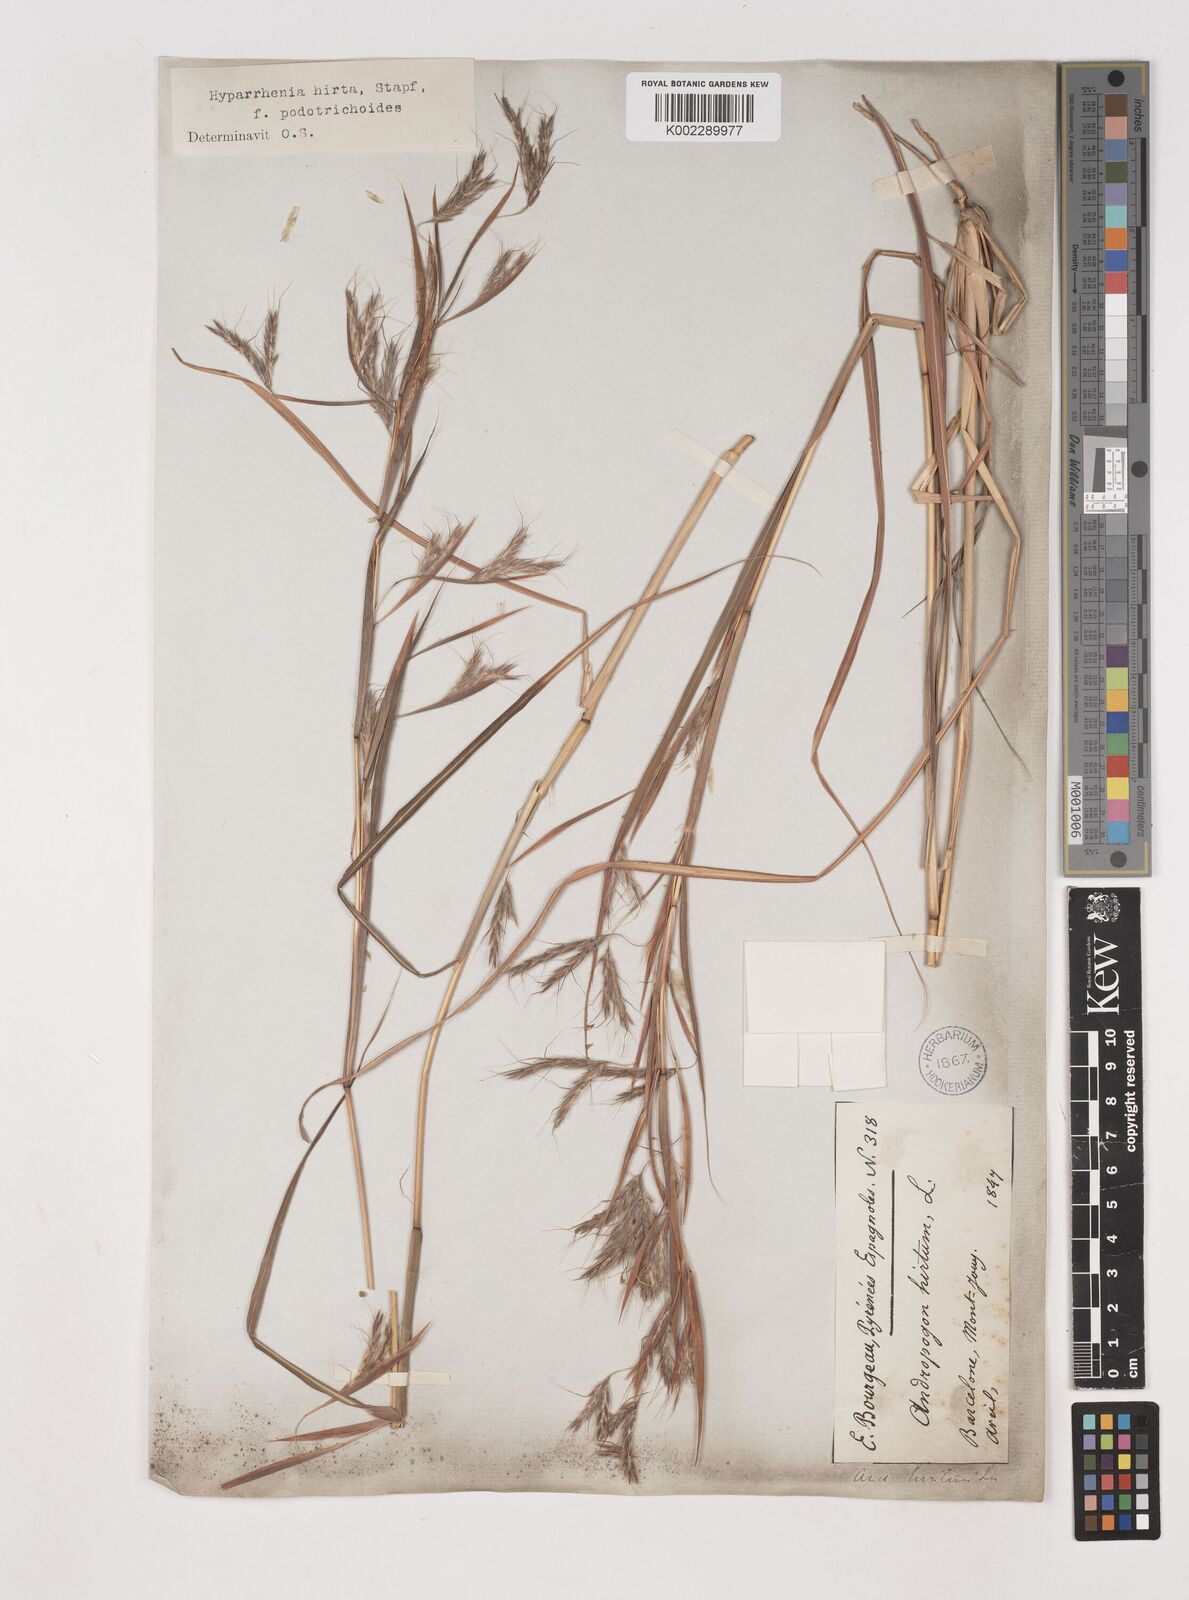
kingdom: Plantae
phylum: Tracheophyta
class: Liliopsida
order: Poales
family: Poaceae
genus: Hyparrhenia
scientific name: Hyparrhenia hirta
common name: Thatching grass
